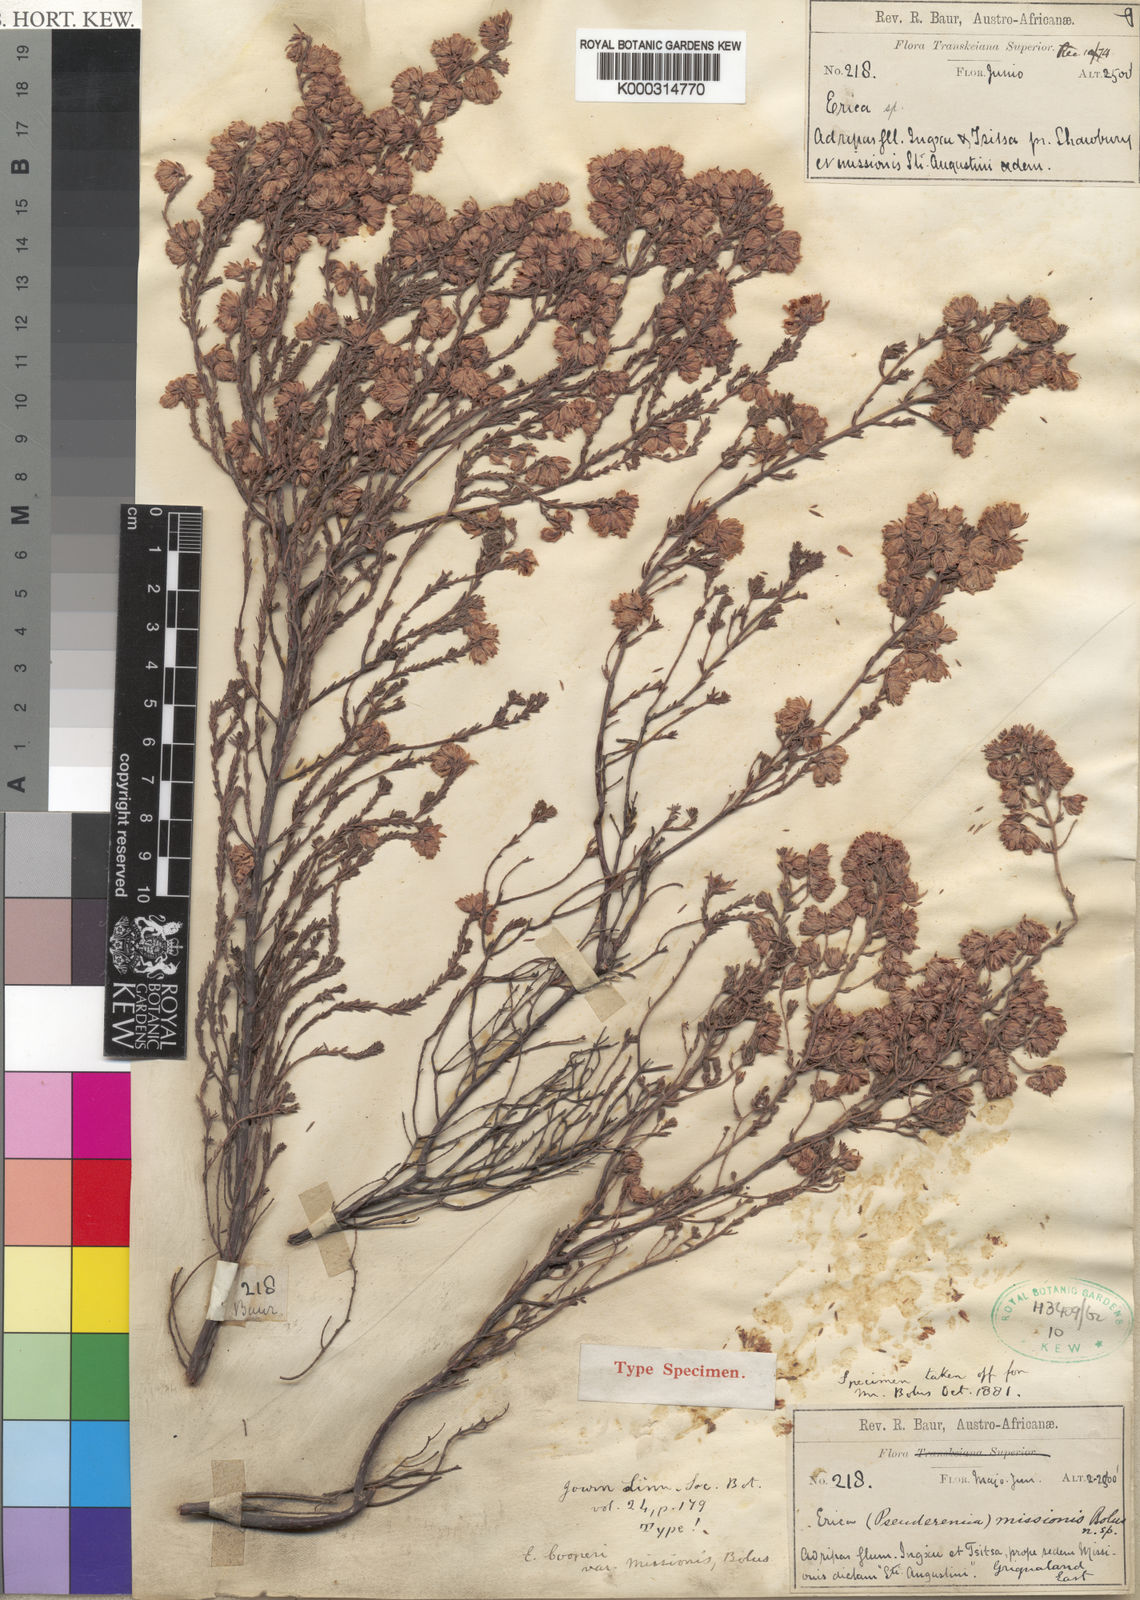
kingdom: Plantae
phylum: Tracheophyta
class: Magnoliopsida
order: Ericales
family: Ericaceae
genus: Erica
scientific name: Erica cooperi
